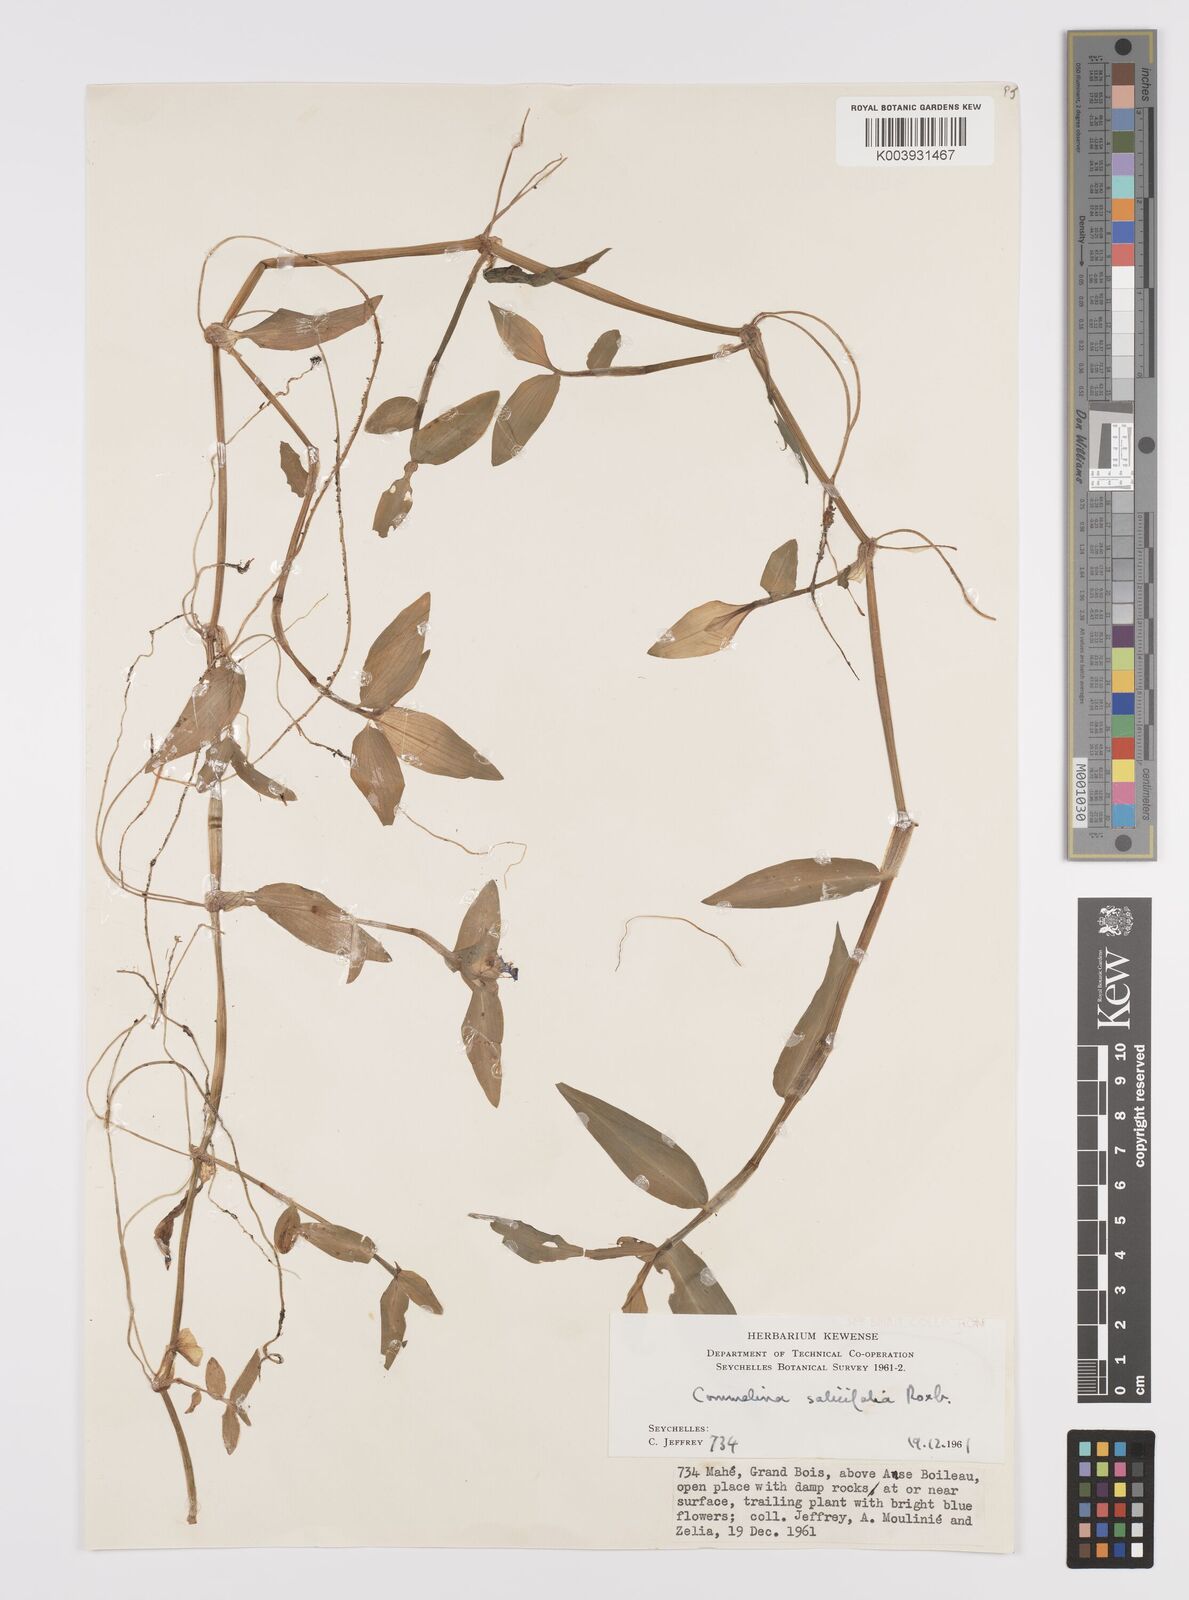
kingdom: Plantae
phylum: Tracheophyta
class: Liliopsida
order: Commelinales
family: Commelinaceae
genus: Commelina
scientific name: Commelina longifolia
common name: Longleaf dayflower
